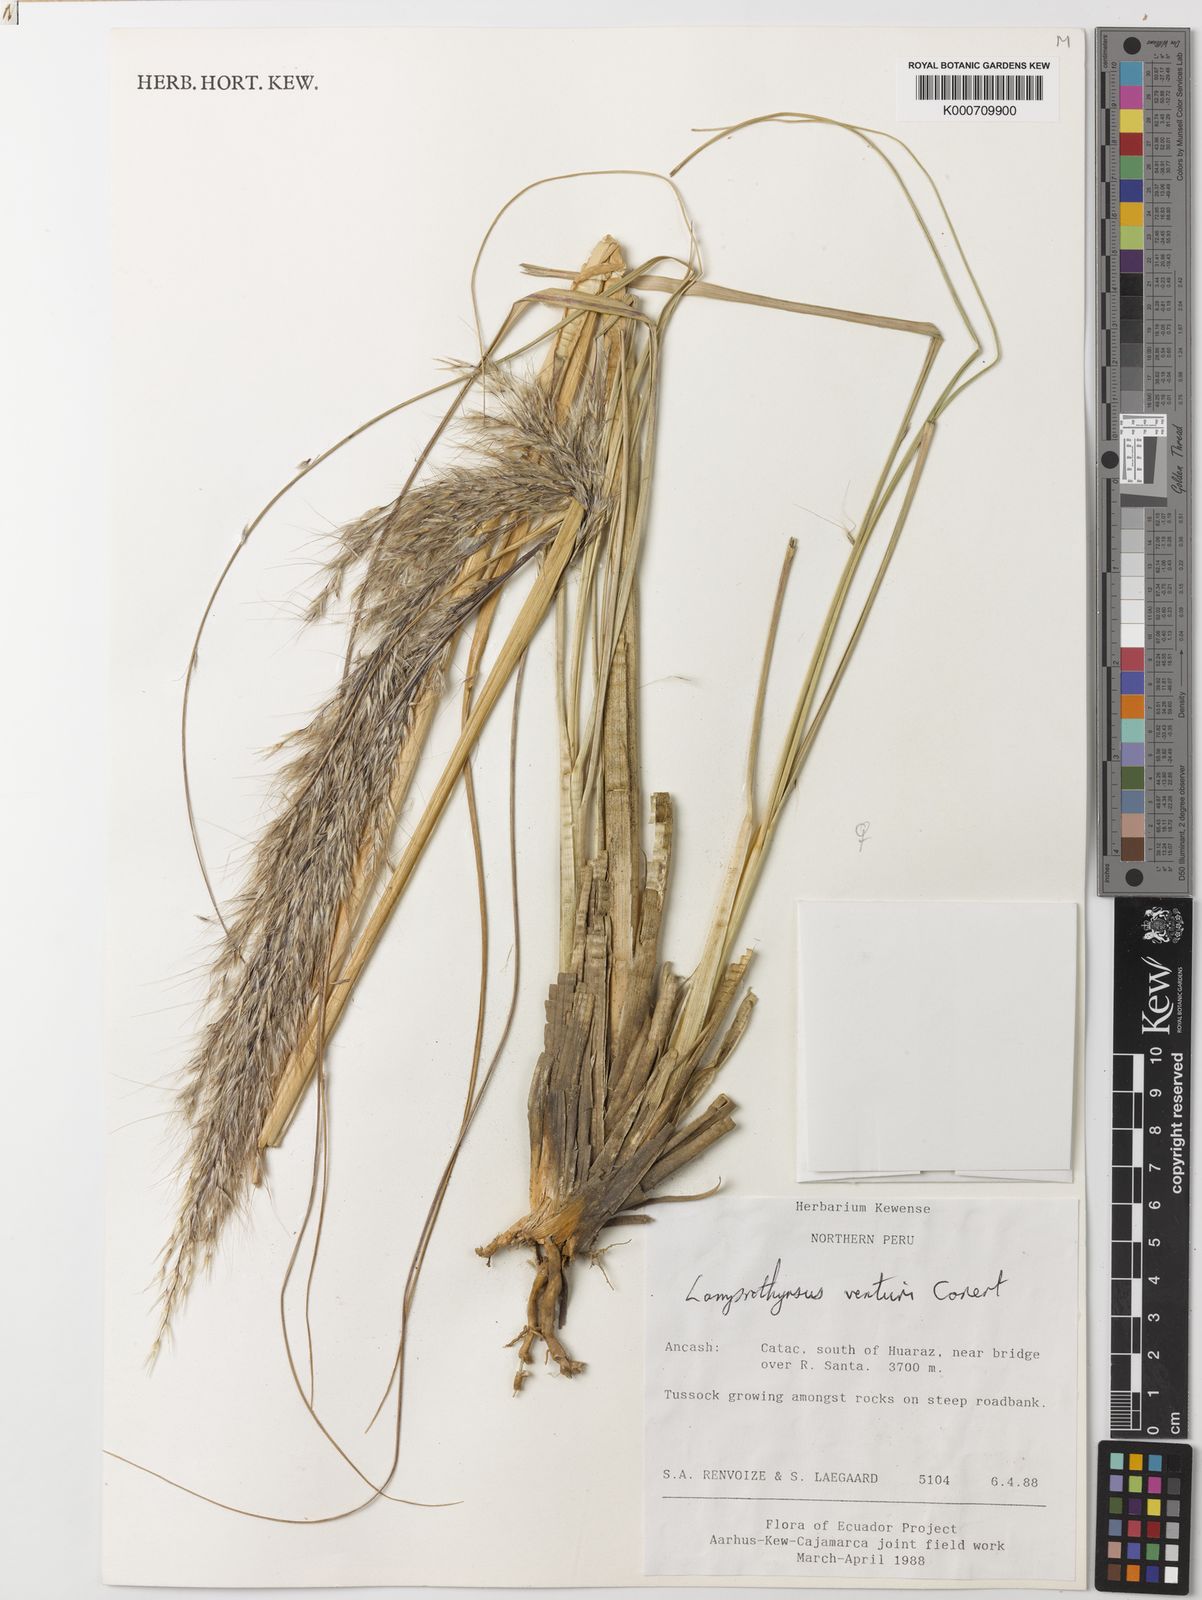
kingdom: Plantae
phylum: Tracheophyta
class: Liliopsida
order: Poales
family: Poaceae
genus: Cortaderia
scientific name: Cortaderia hieronymi
